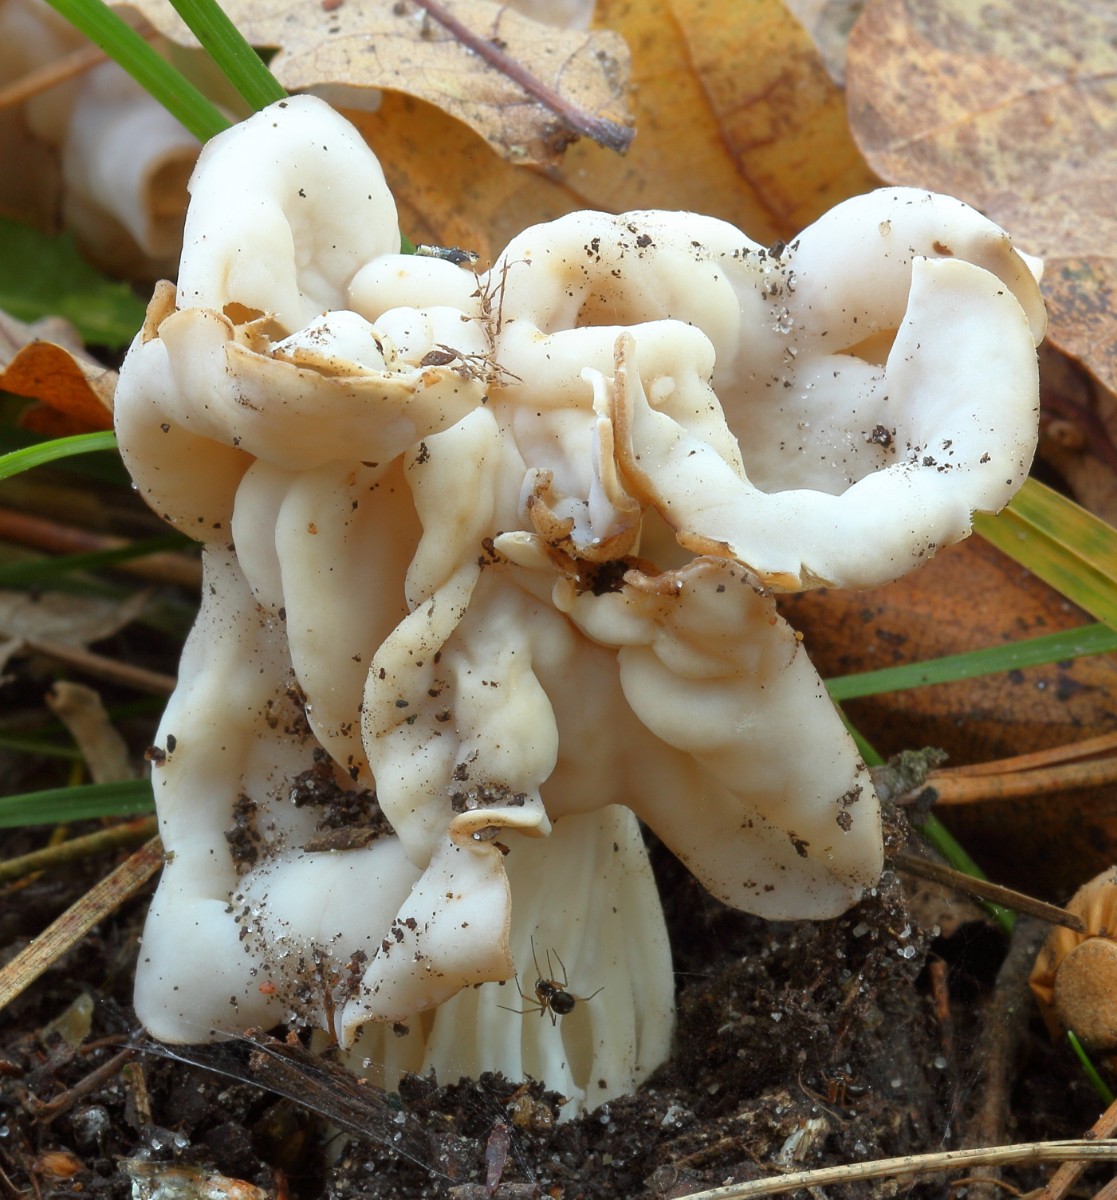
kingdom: Fungi
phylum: Ascomycota
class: Pezizomycetes
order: Pezizales
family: Helvellaceae
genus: Helvella
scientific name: Helvella crispa
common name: kruset foldhat
